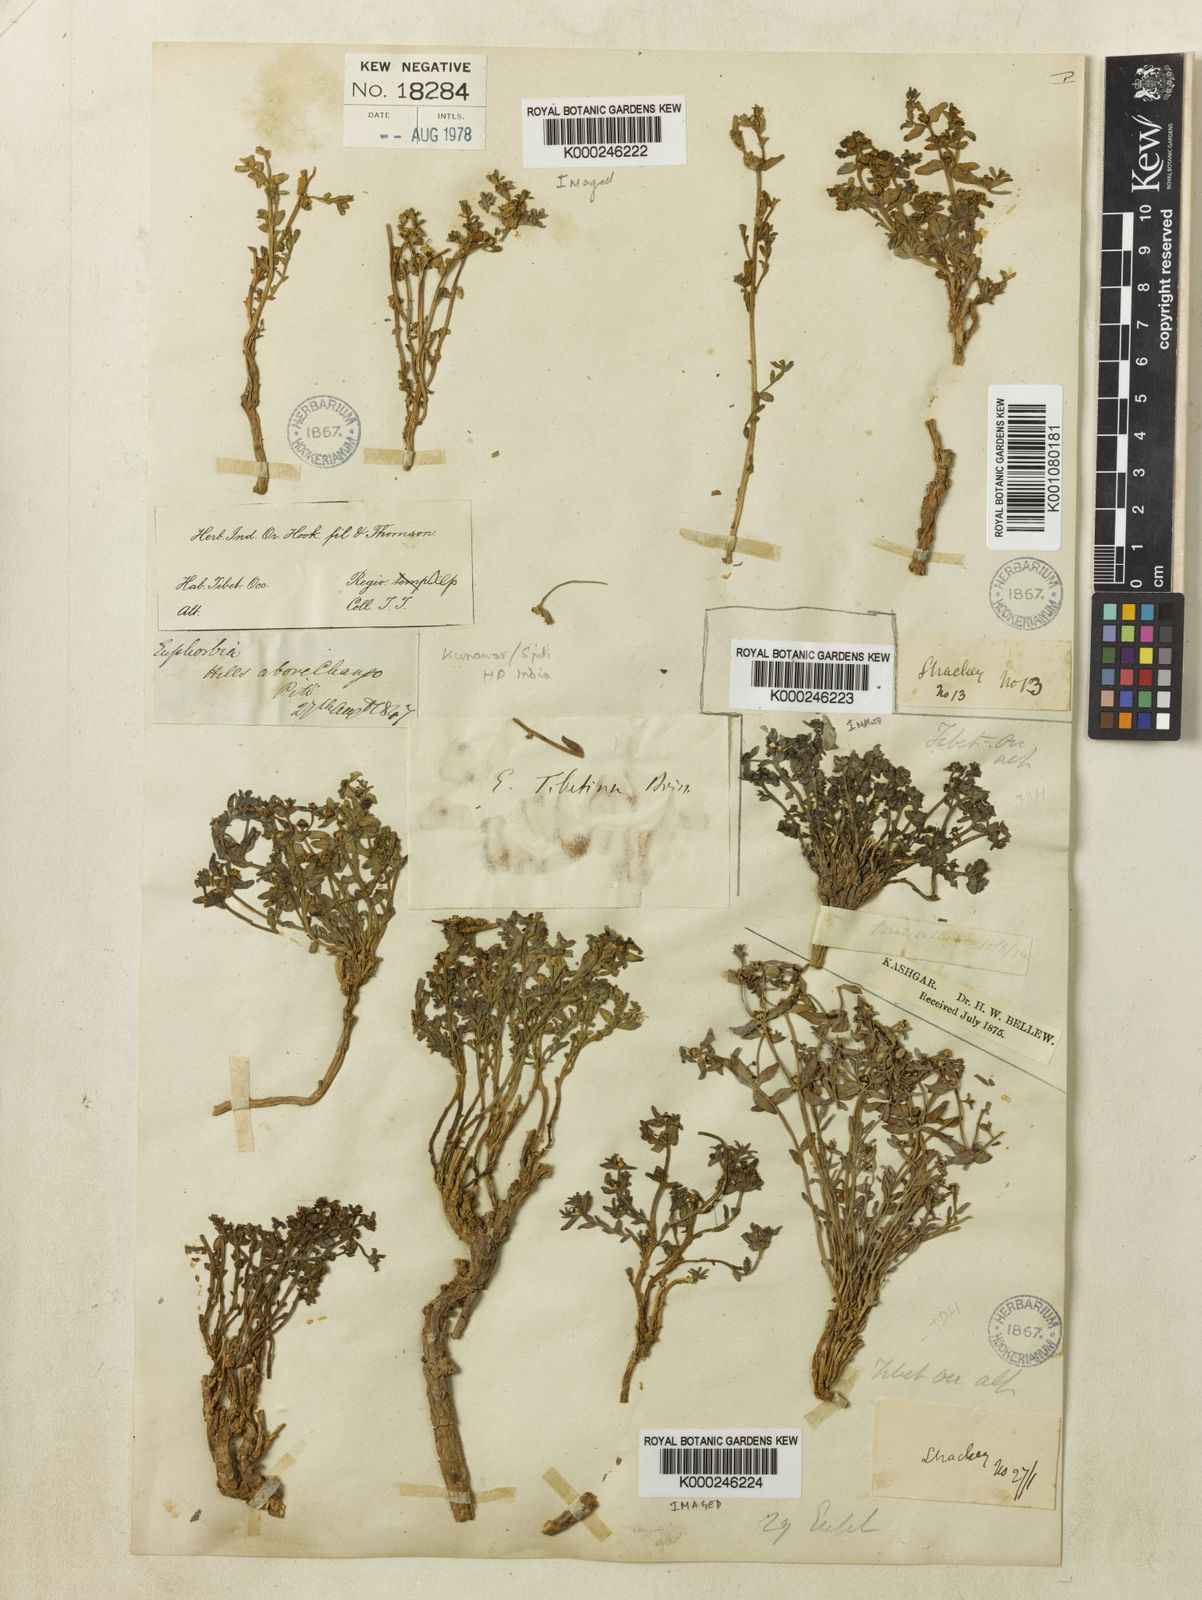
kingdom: Plantae
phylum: Tracheophyta
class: Magnoliopsida
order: Malpighiales
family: Euphorbiaceae
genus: Euphorbia
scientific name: Euphorbia tibetica
